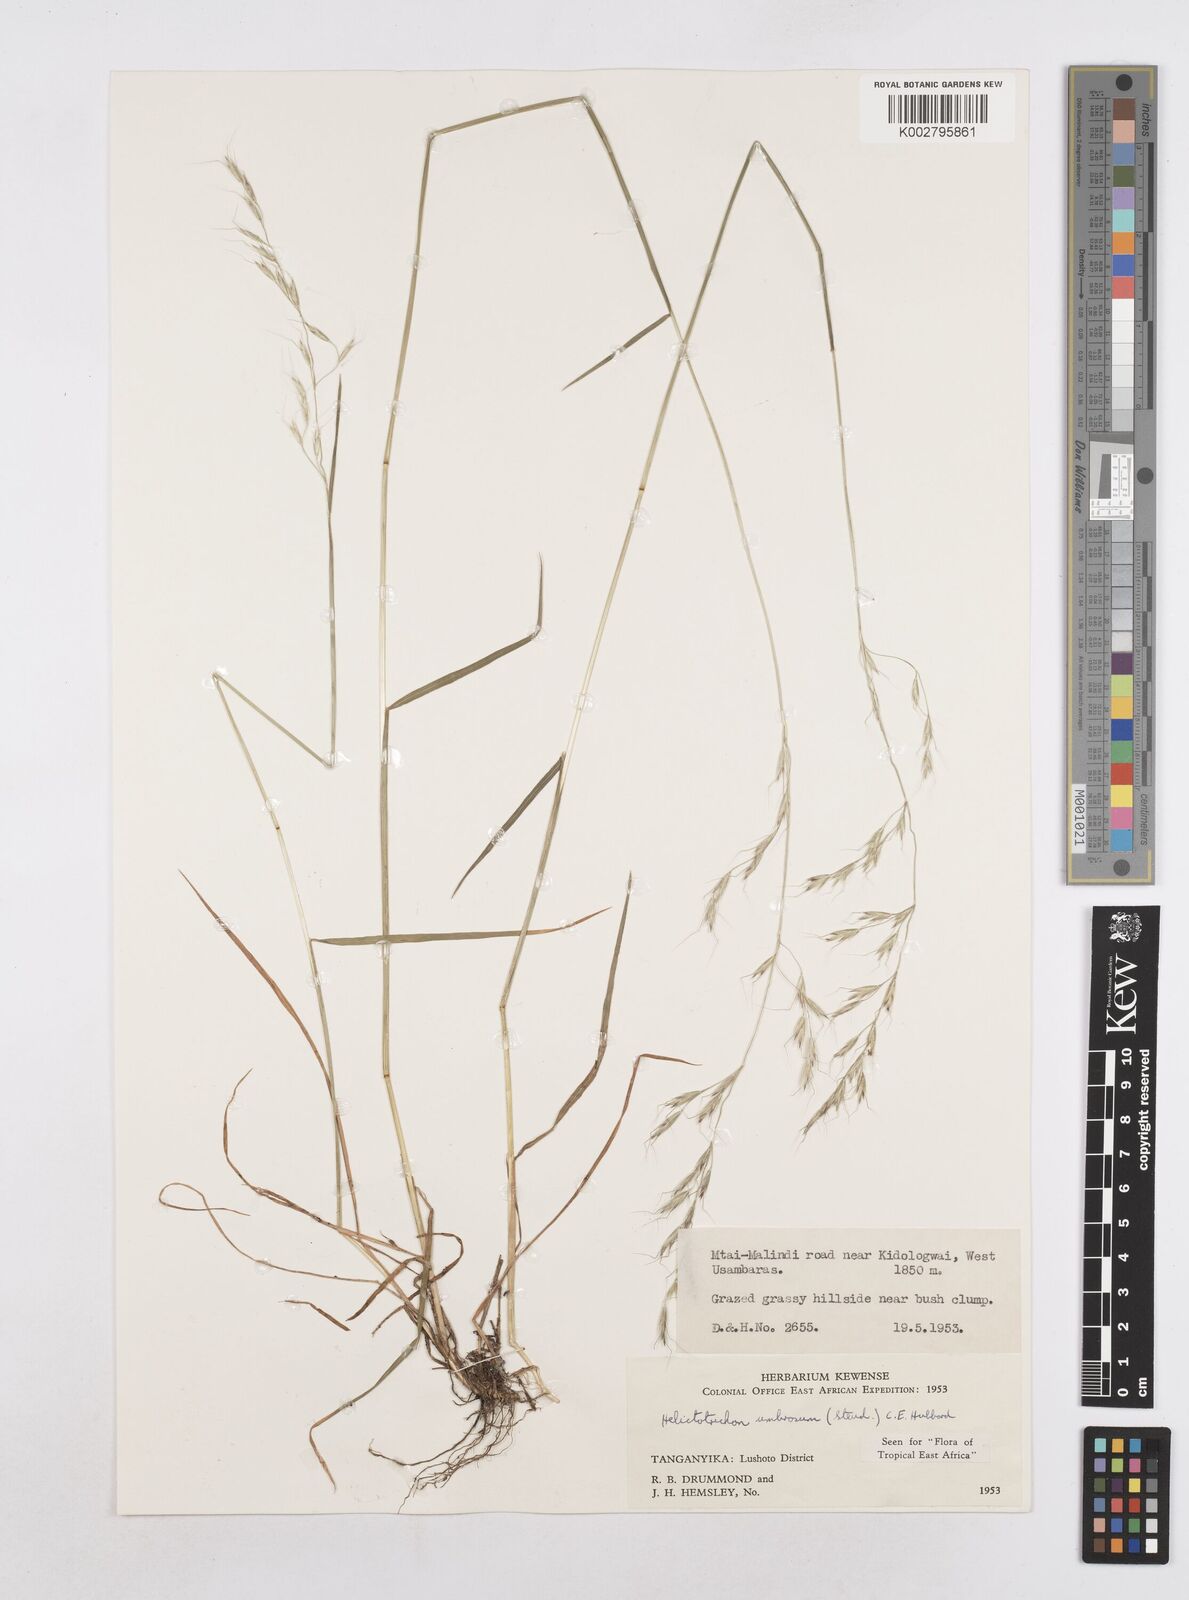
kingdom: Plantae
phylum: Tracheophyta
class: Liliopsida
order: Poales
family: Poaceae
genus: Trisetopsis
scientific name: Trisetopsis umbrosa
